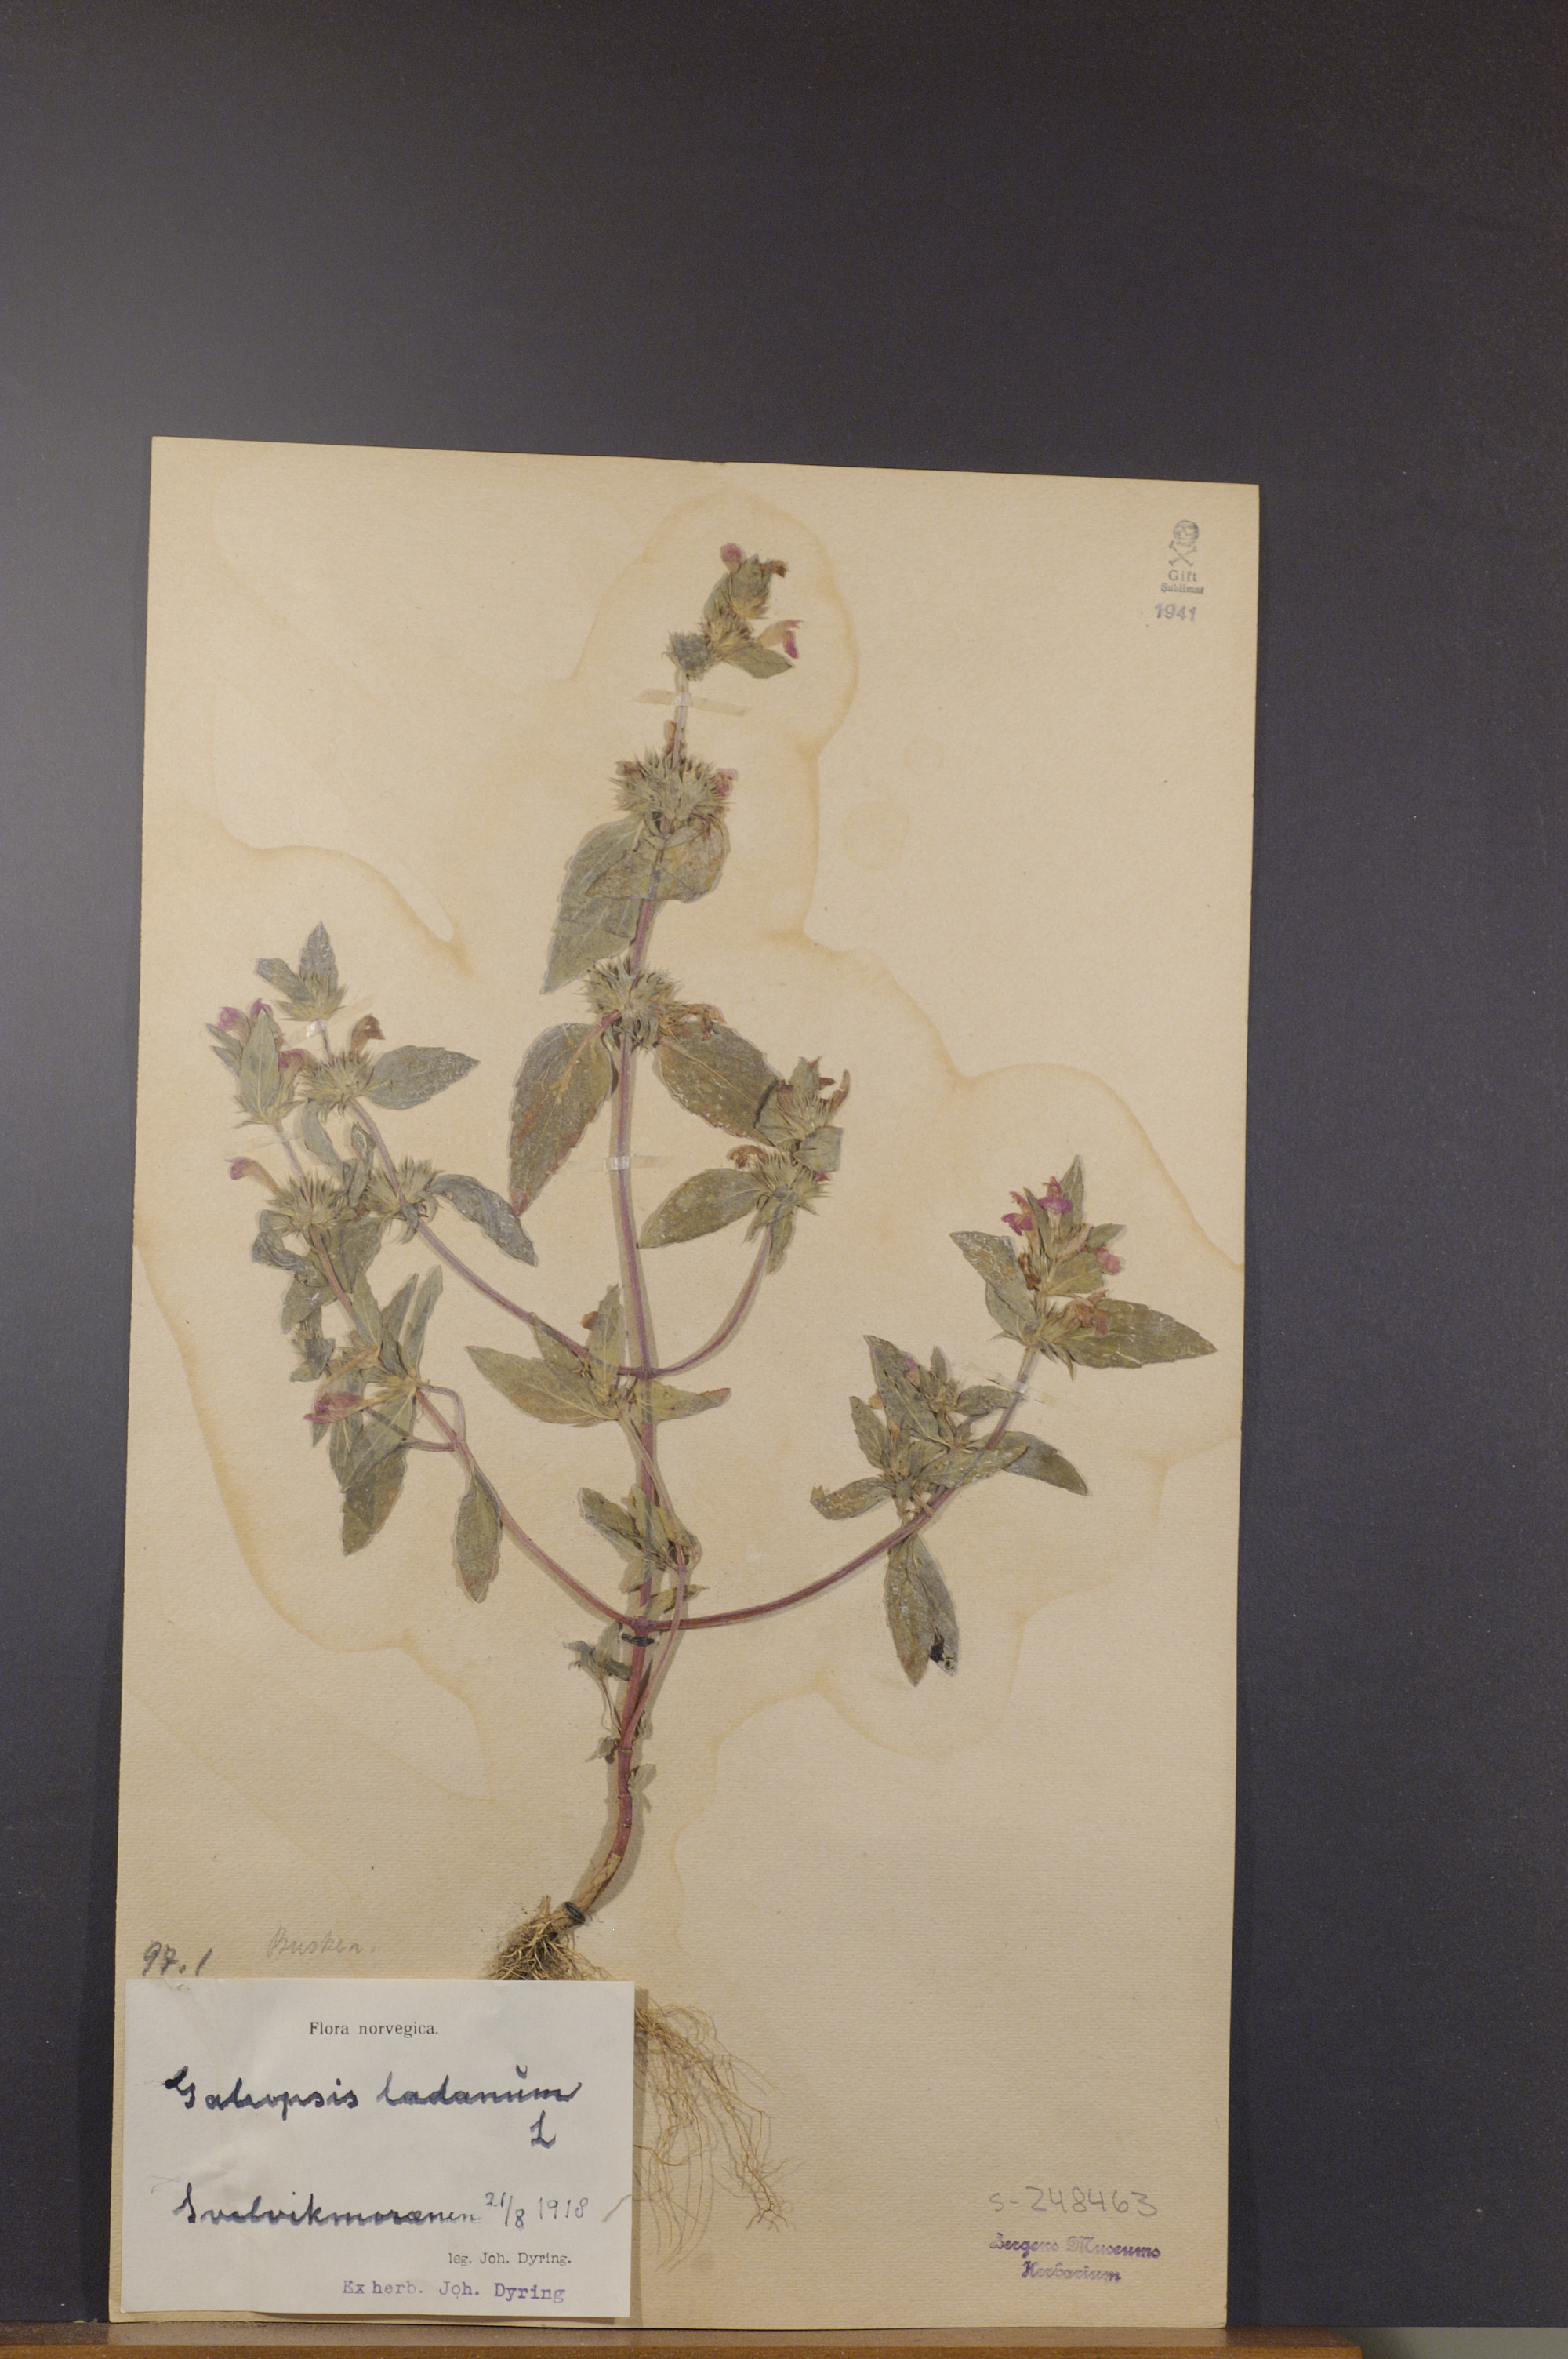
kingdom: Plantae
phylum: Tracheophyta
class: Magnoliopsida
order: Lamiales
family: Lamiaceae
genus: Galeopsis
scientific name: Galeopsis ladanum
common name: Broad-leaved hemp-nettle
